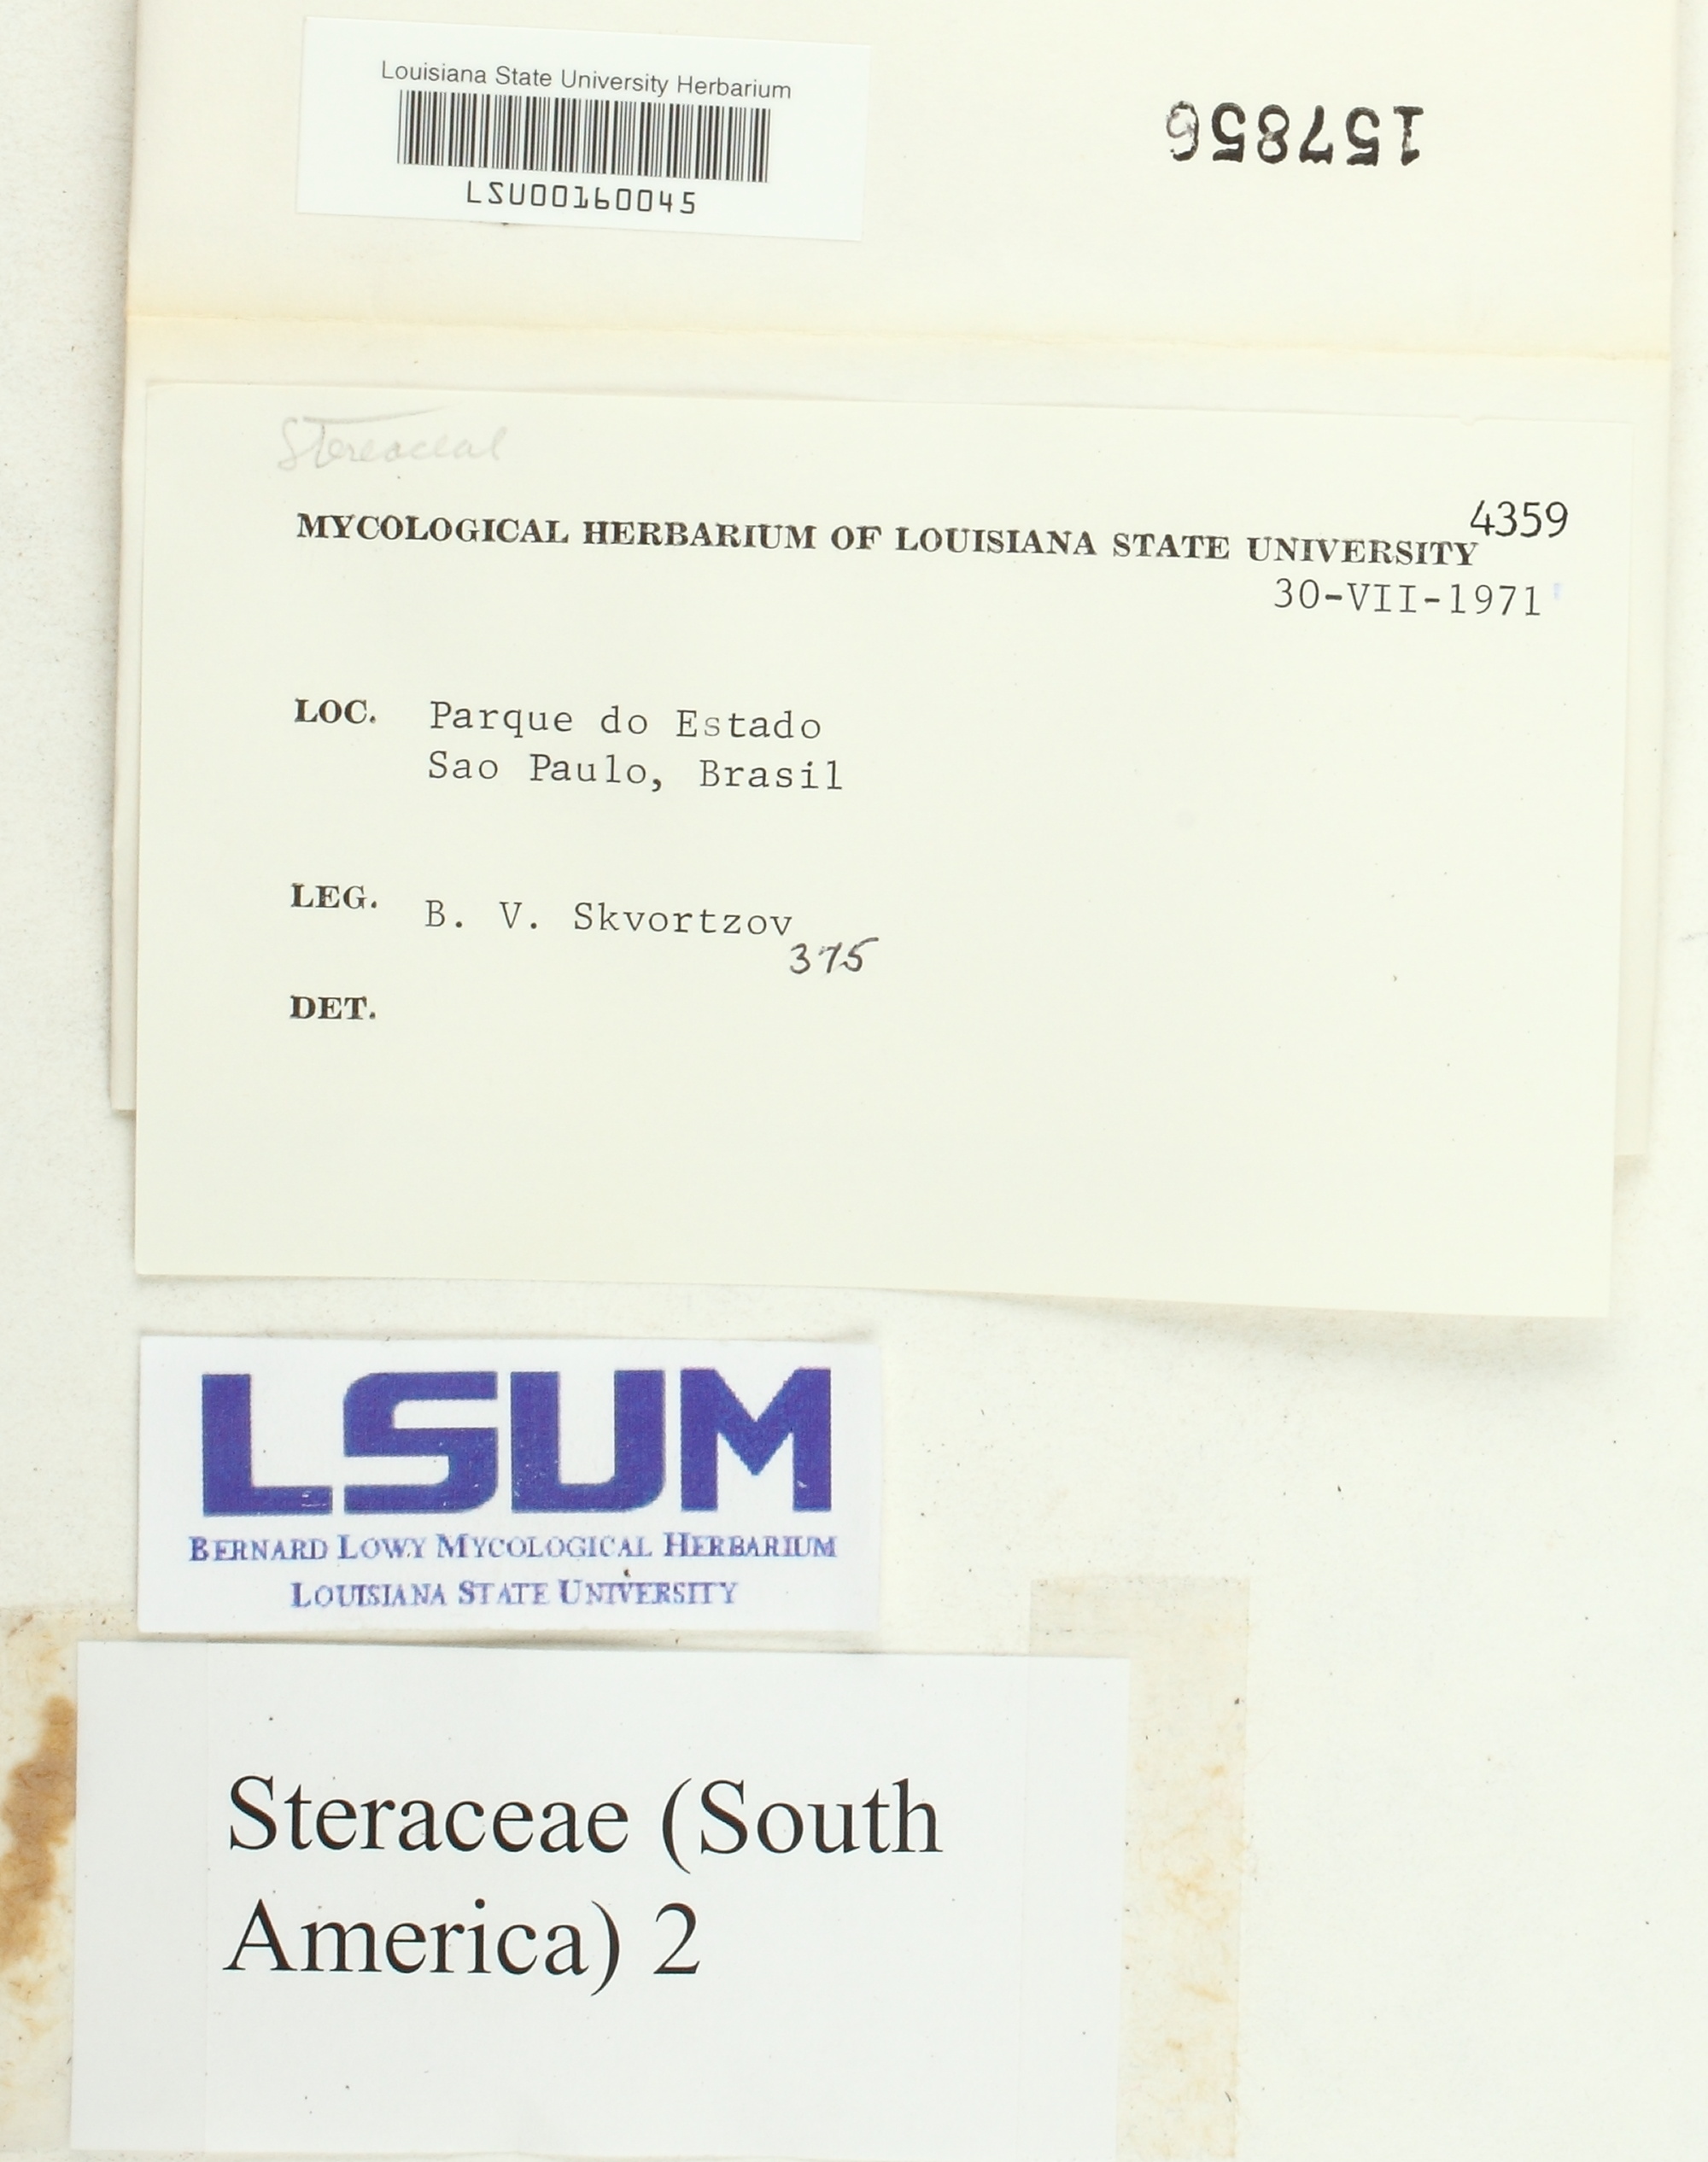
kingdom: Fungi
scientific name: Fungi
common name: Fungi
